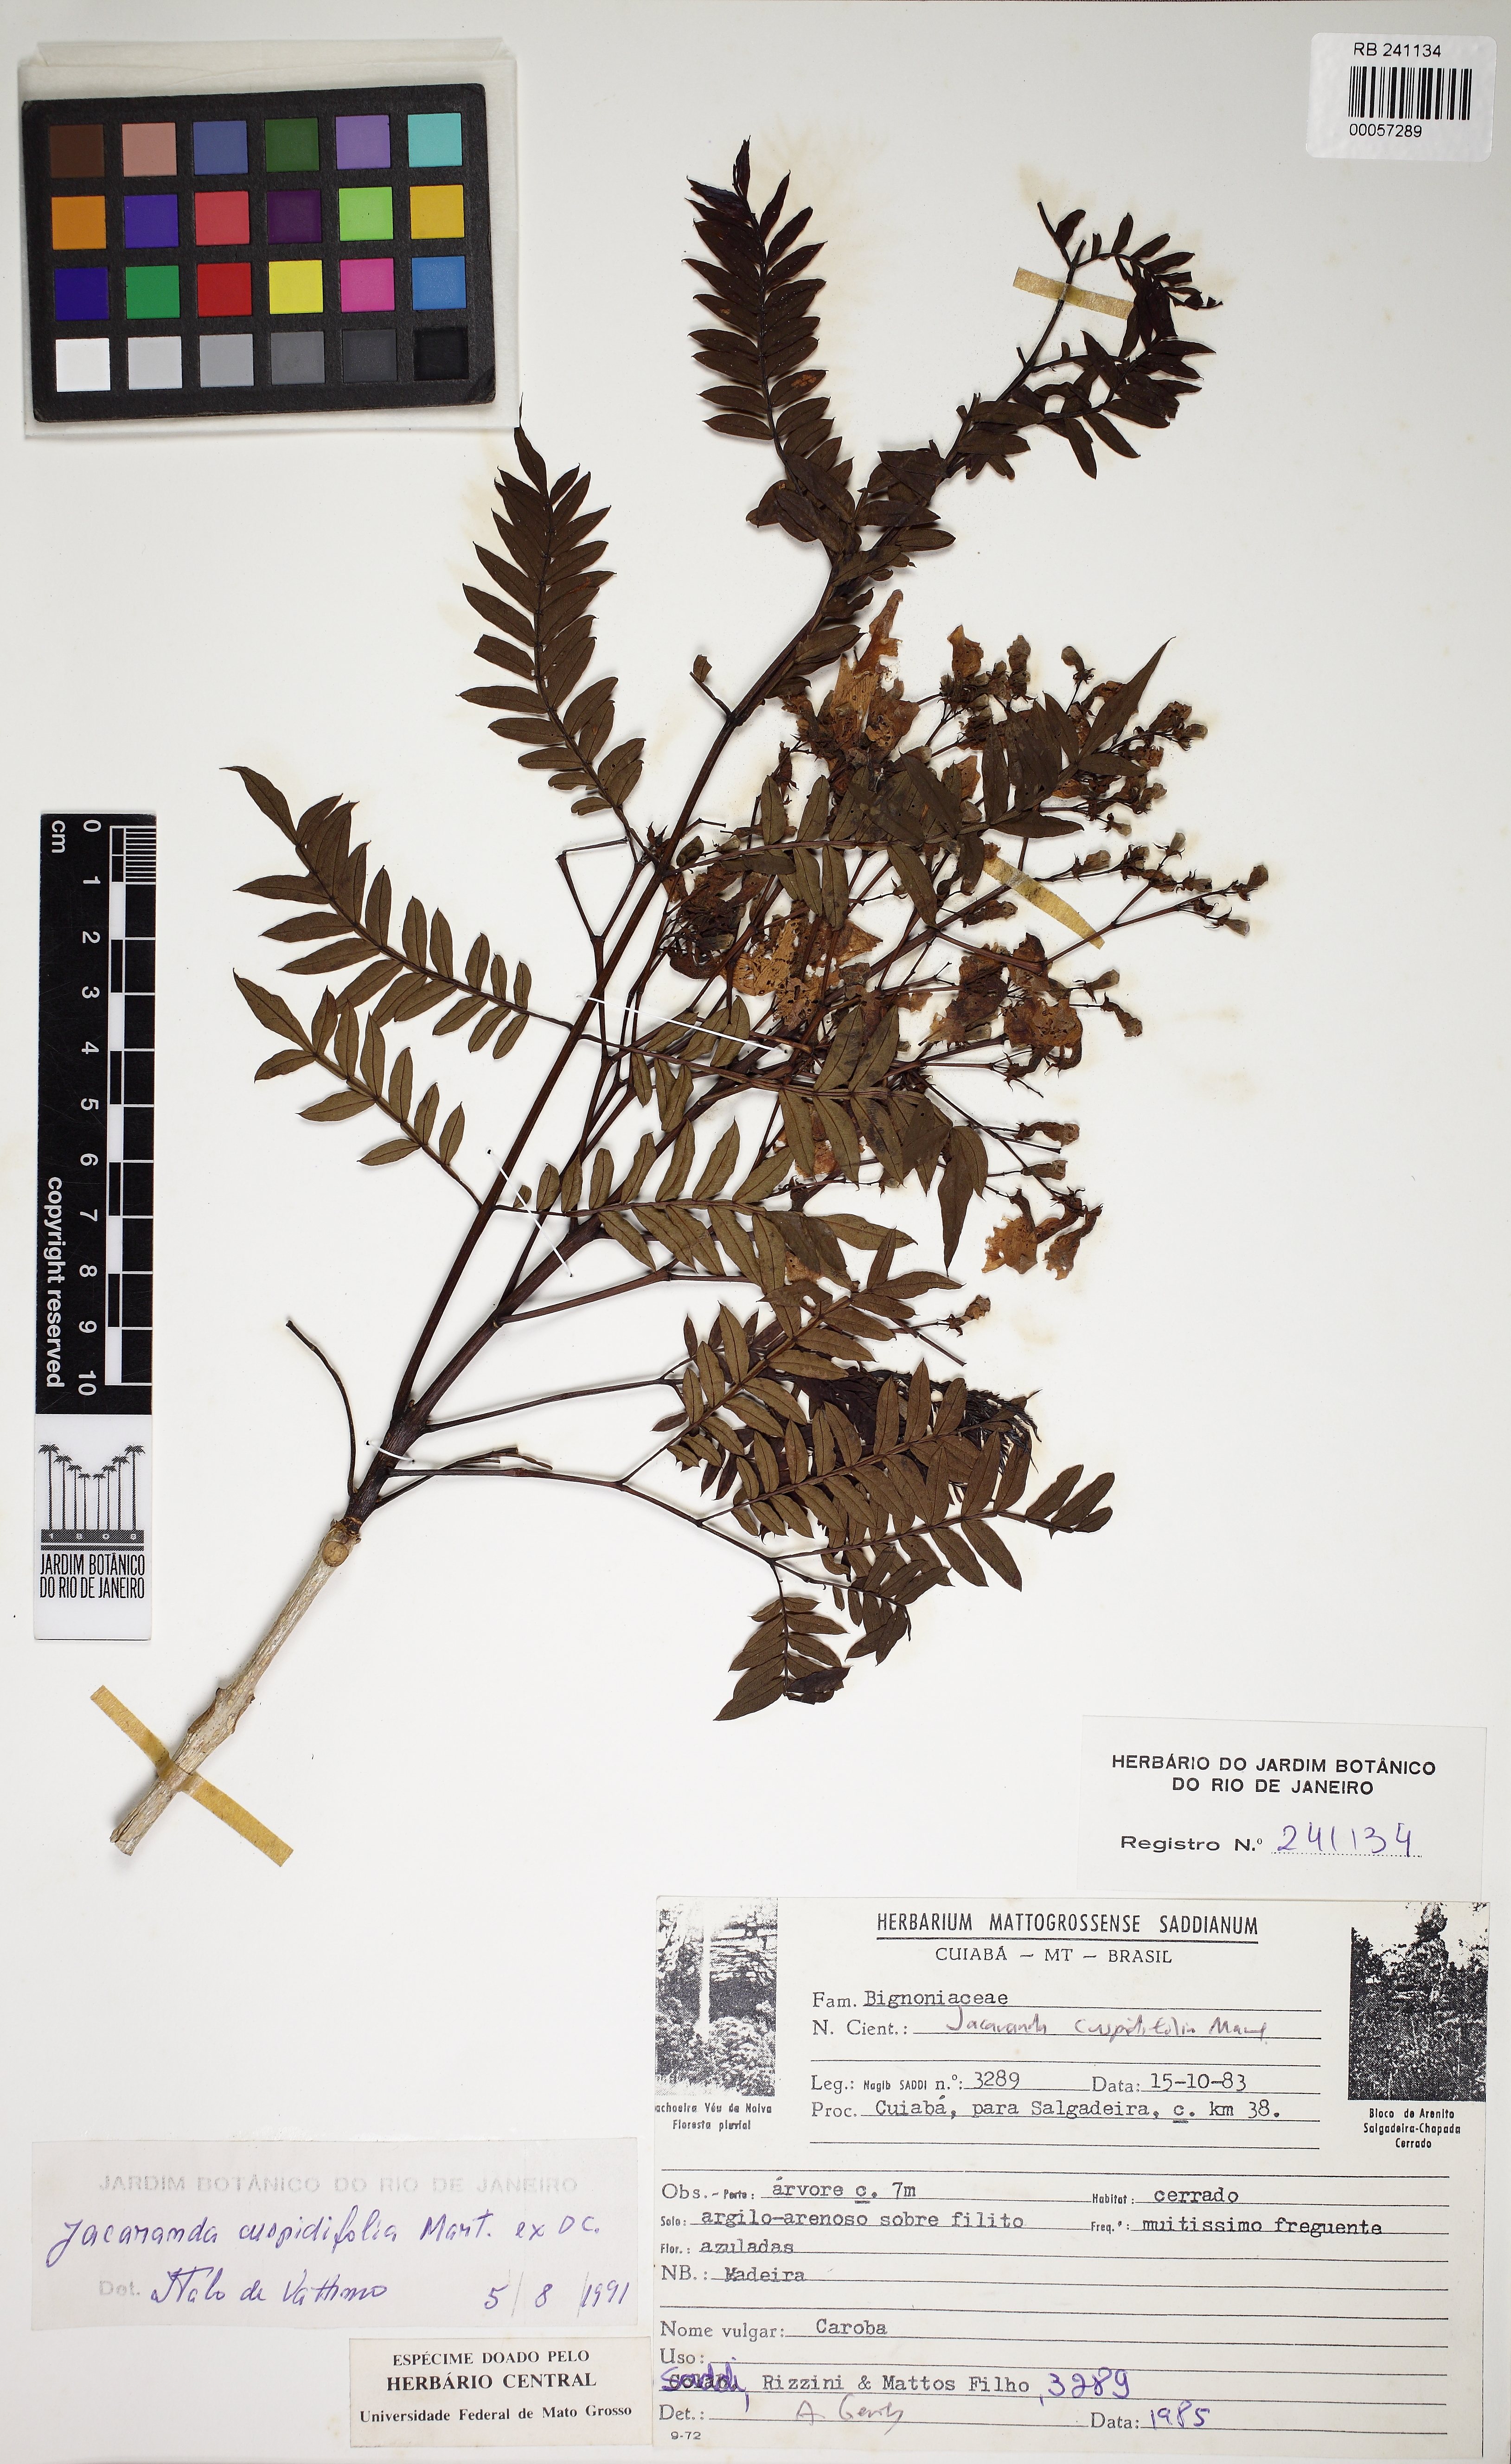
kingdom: Plantae
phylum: Tracheophyta
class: Magnoliopsida
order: Lamiales
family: Bignoniaceae
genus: Jacaranda
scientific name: Jacaranda cuspidifolia
